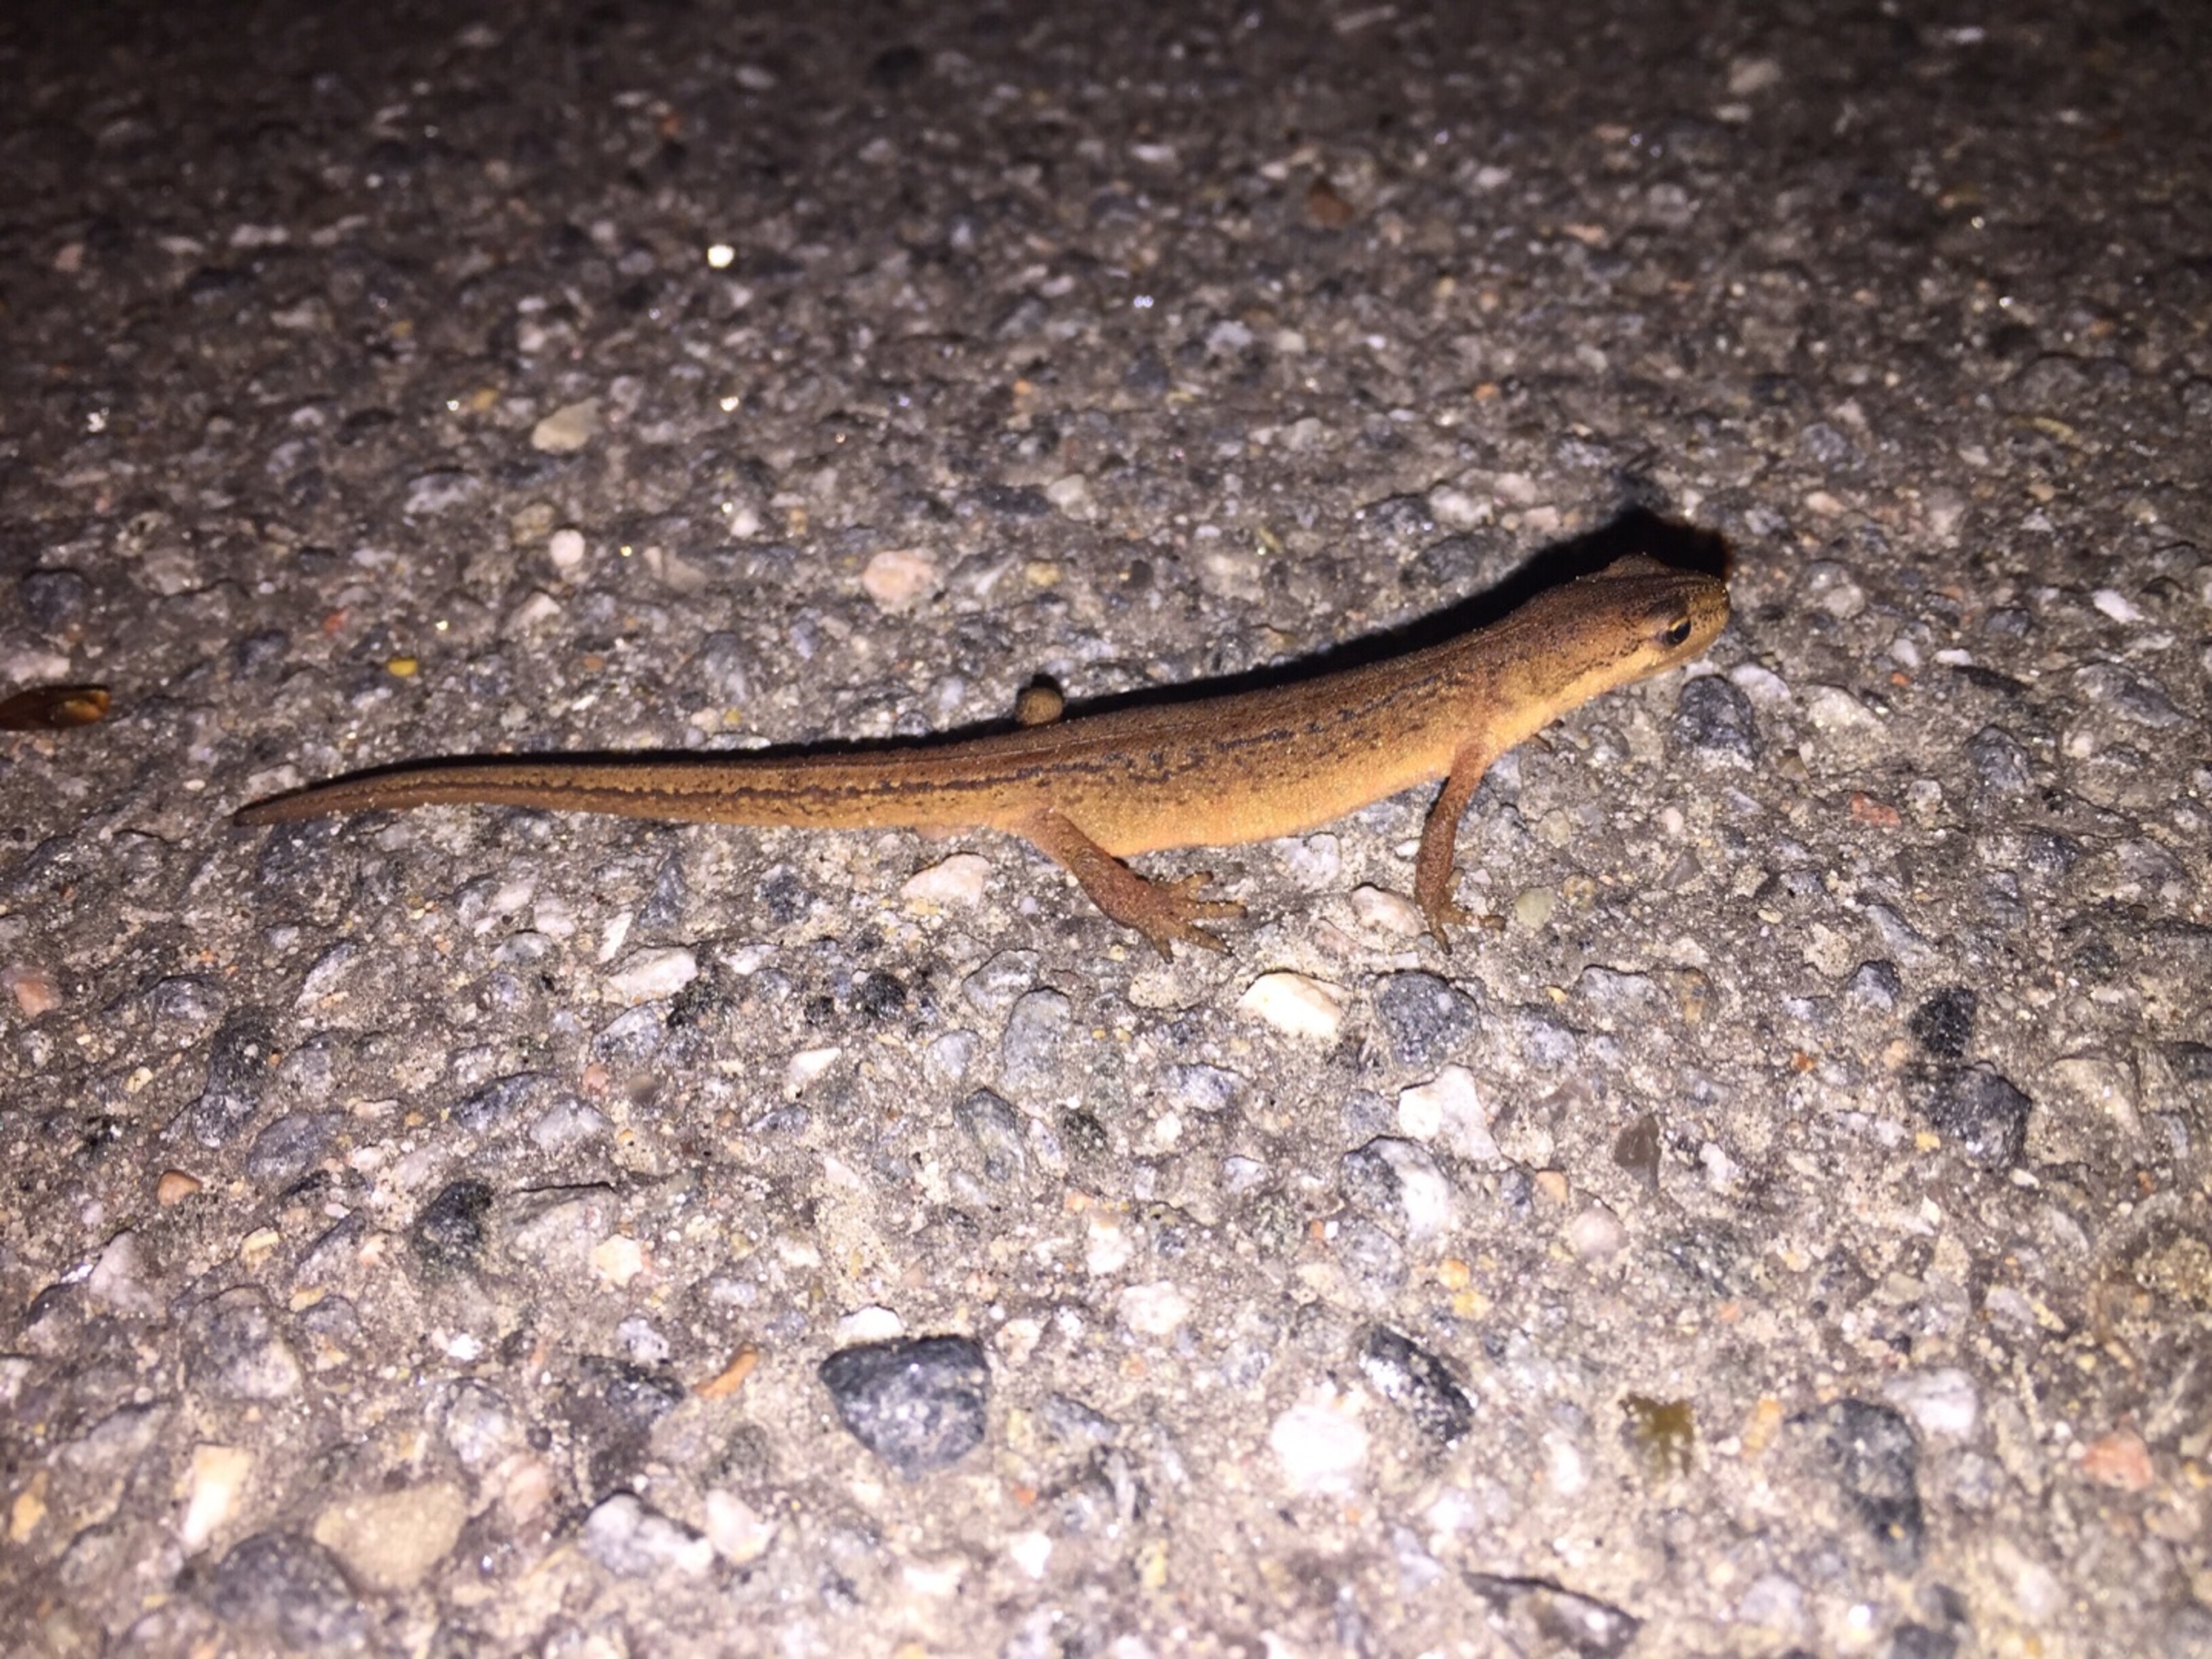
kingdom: Animalia
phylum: Chordata
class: Amphibia
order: Caudata
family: Salamandridae
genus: Lissotriton
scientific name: Lissotriton vulgaris
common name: Lille vandsalamander
